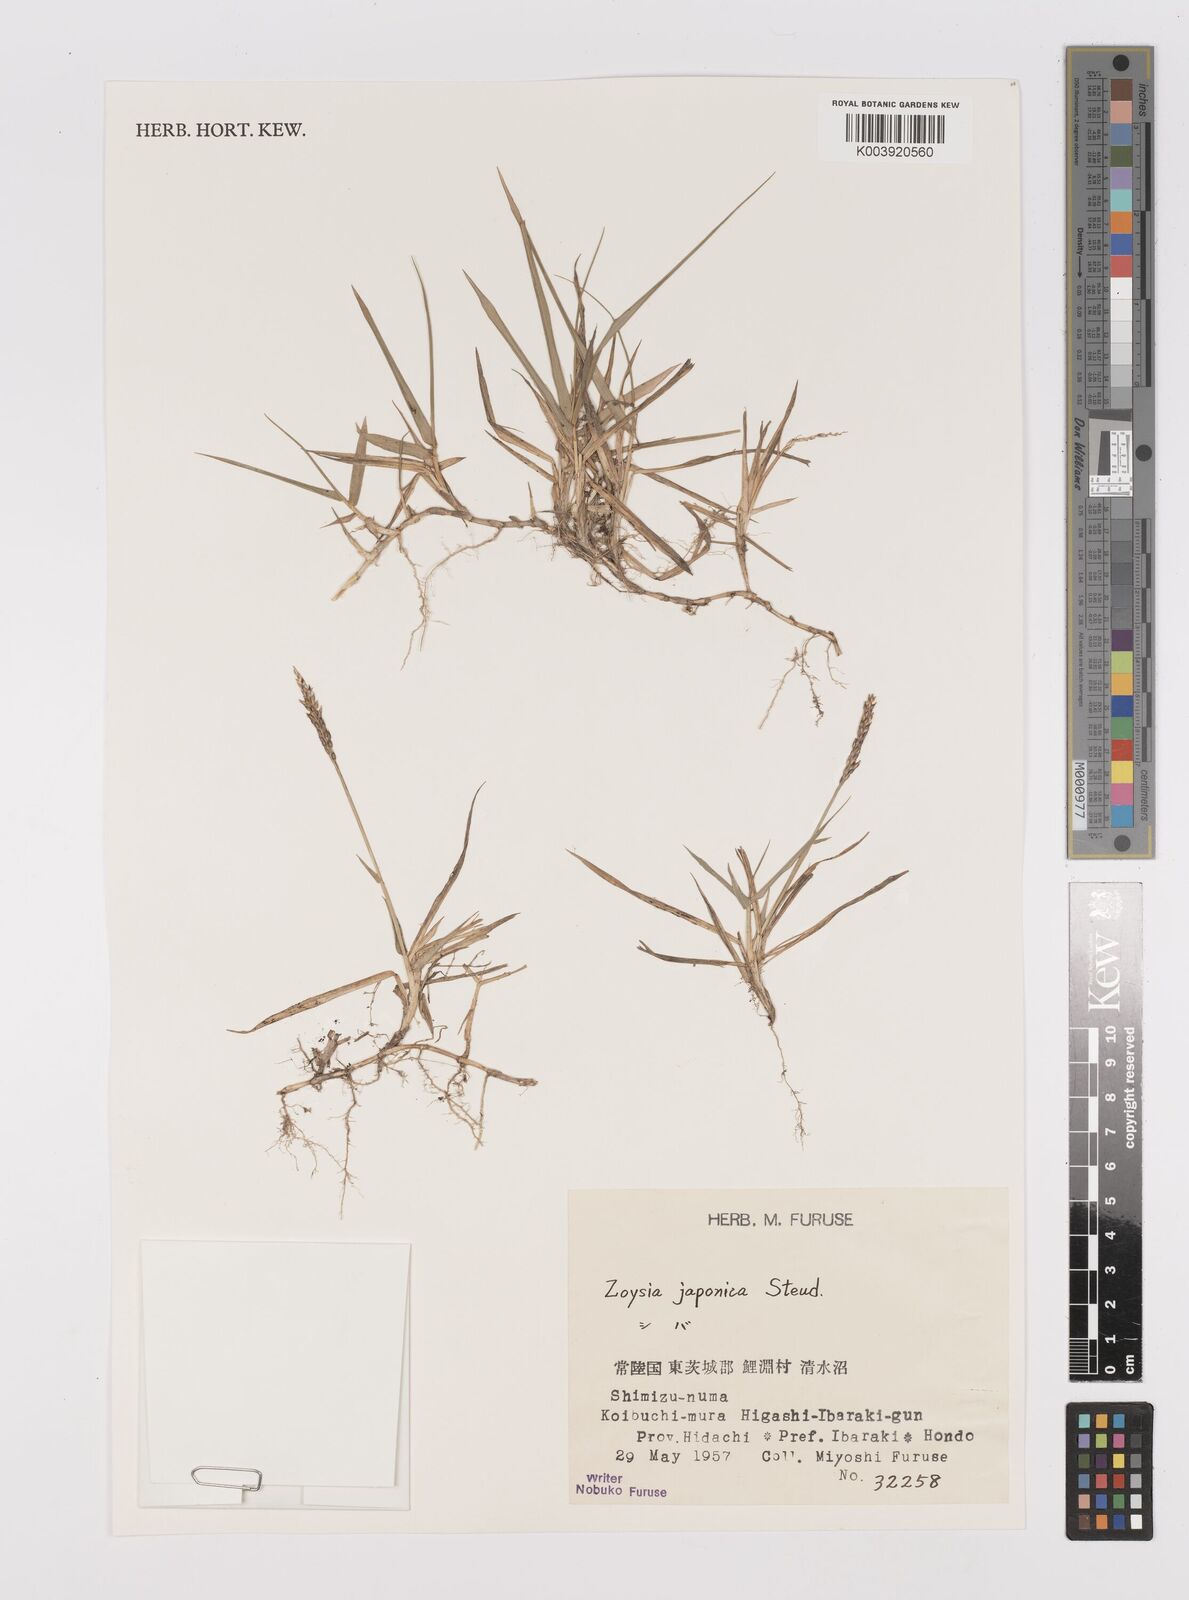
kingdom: Plantae
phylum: Tracheophyta
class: Liliopsida
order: Poales
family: Poaceae
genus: Zoysia
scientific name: Zoysia japonica
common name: Korean lawngrass
